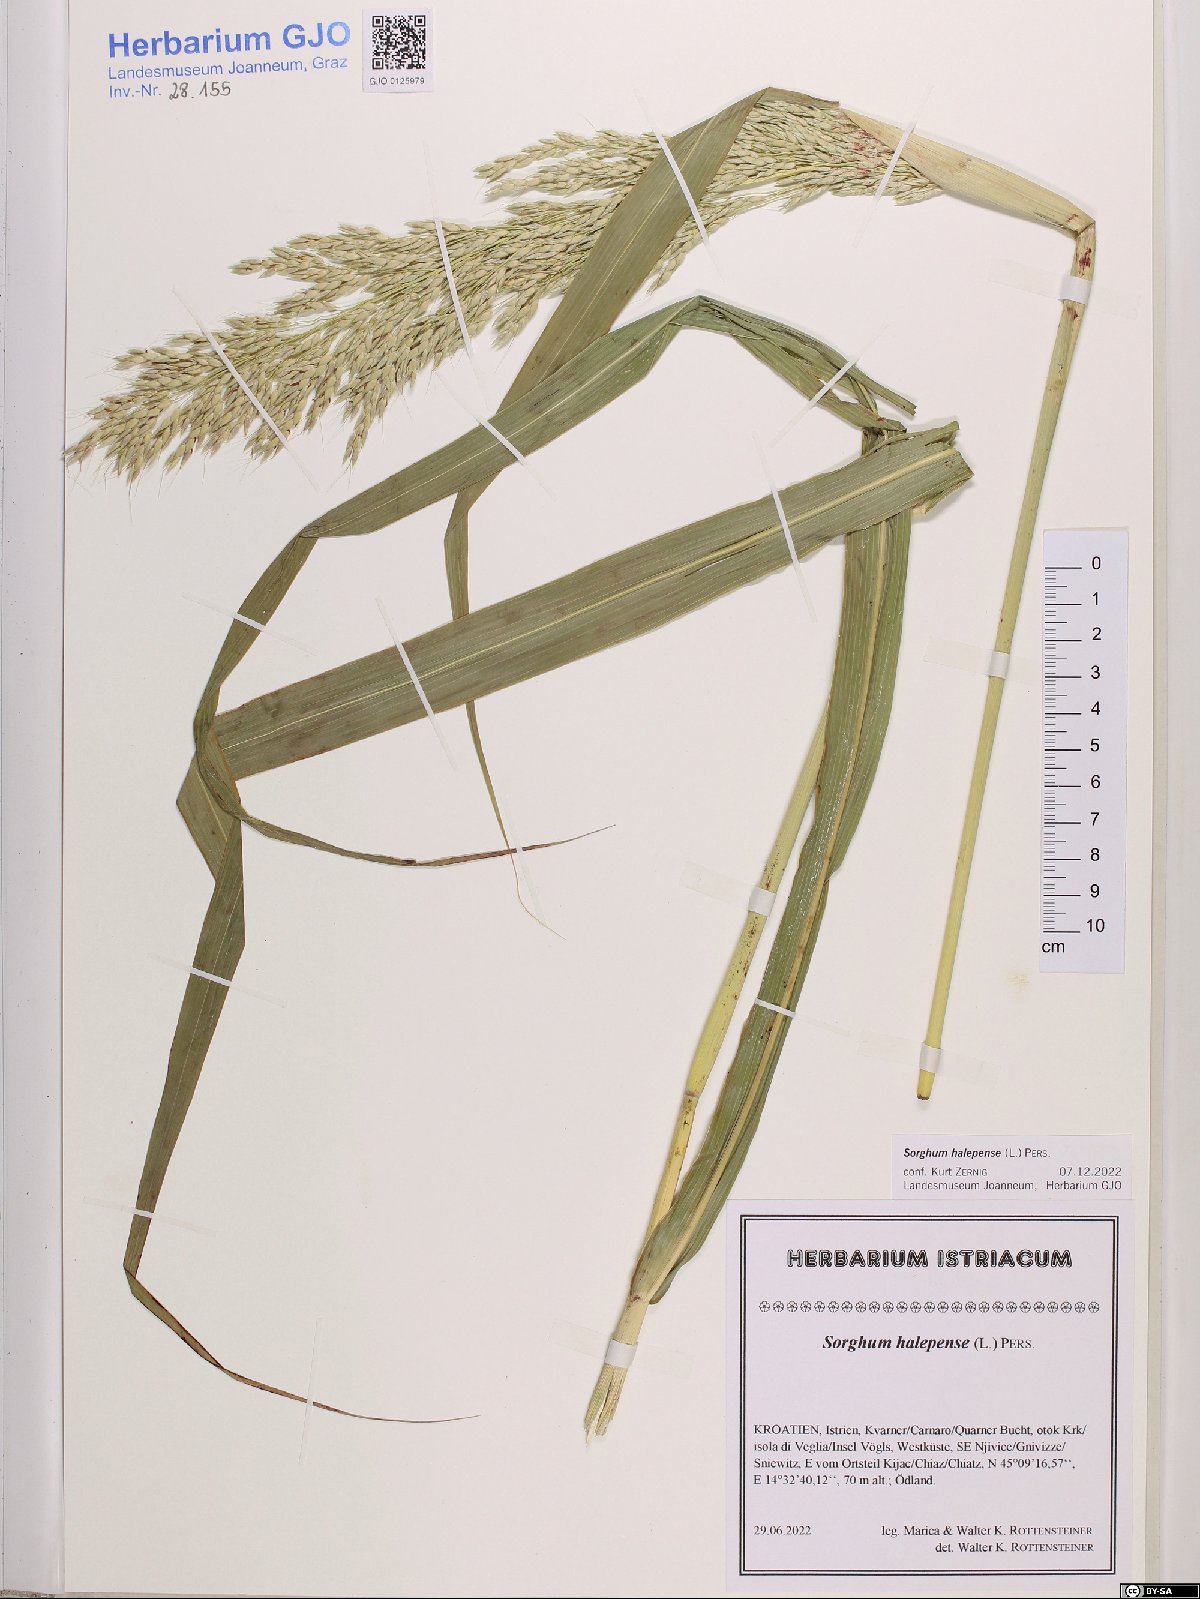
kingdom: Plantae
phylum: Tracheophyta
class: Liliopsida
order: Poales
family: Poaceae
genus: Sorghum
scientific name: Sorghum halepense
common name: Johnson-grass
